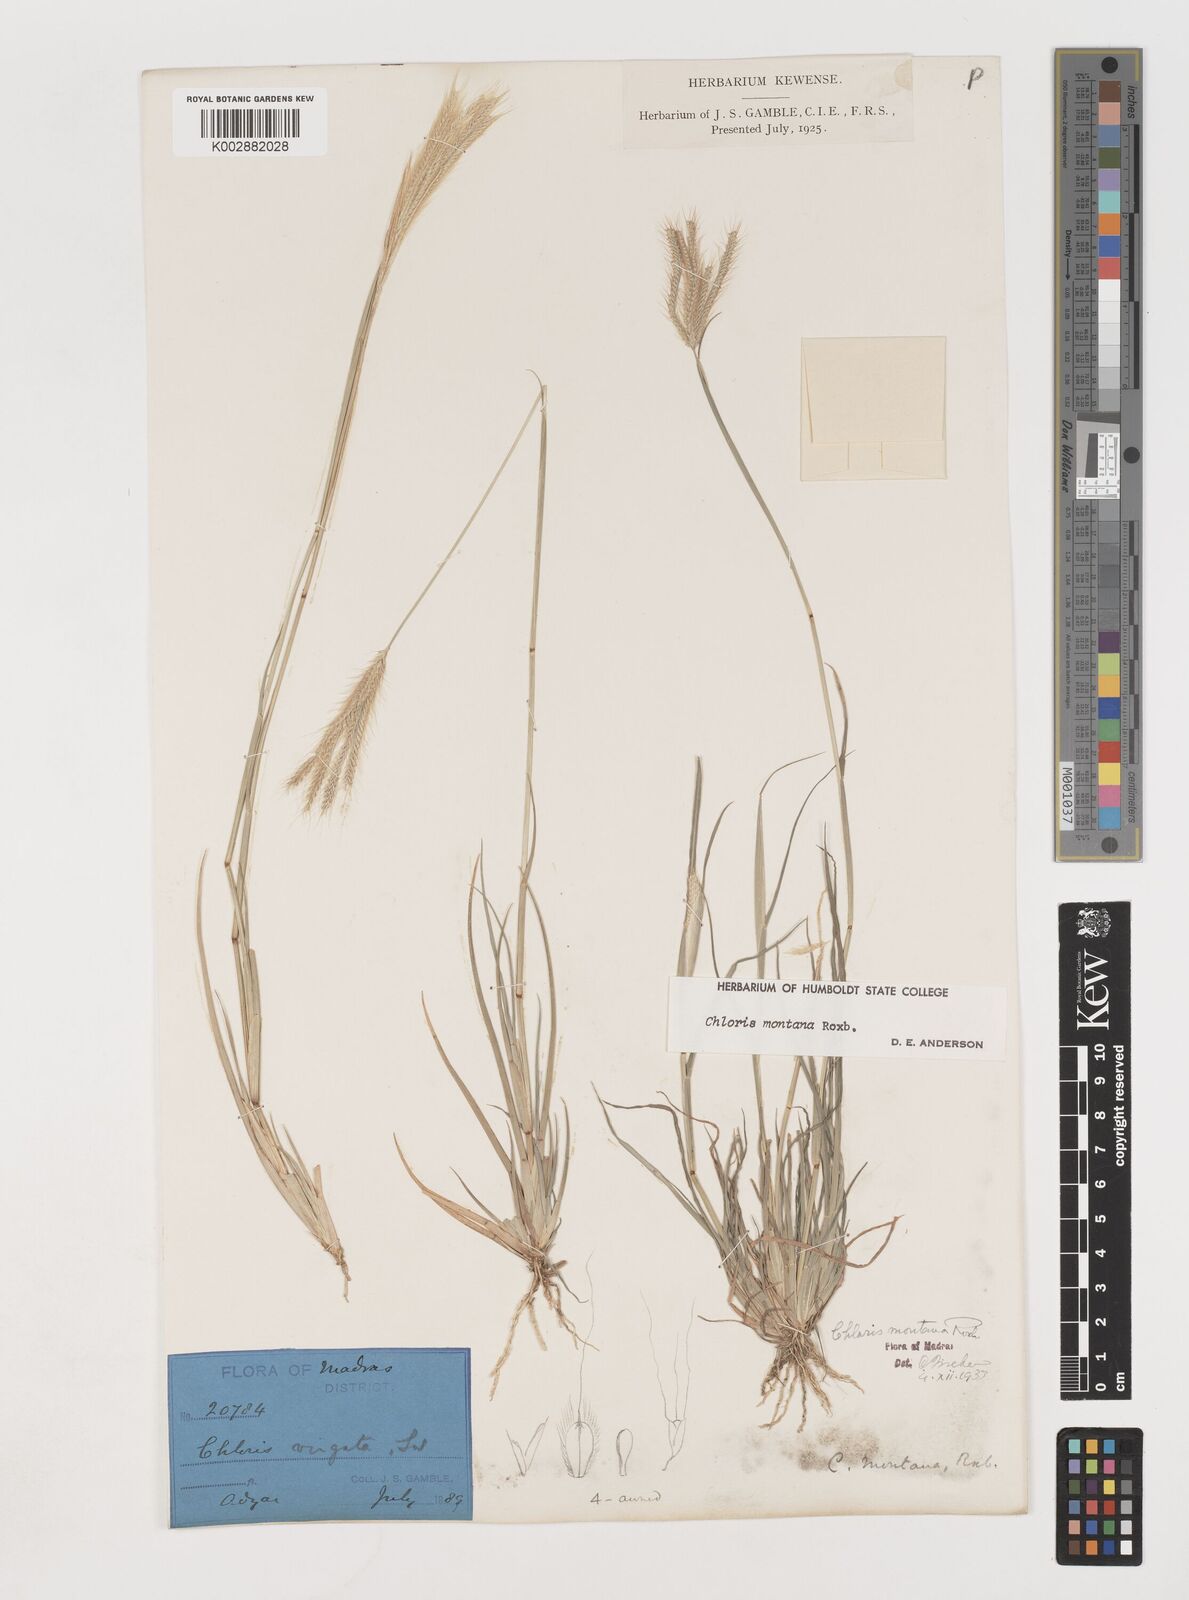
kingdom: Plantae
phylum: Tracheophyta
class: Liliopsida
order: Poales
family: Poaceae
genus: Chloris
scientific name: Chloris montana
